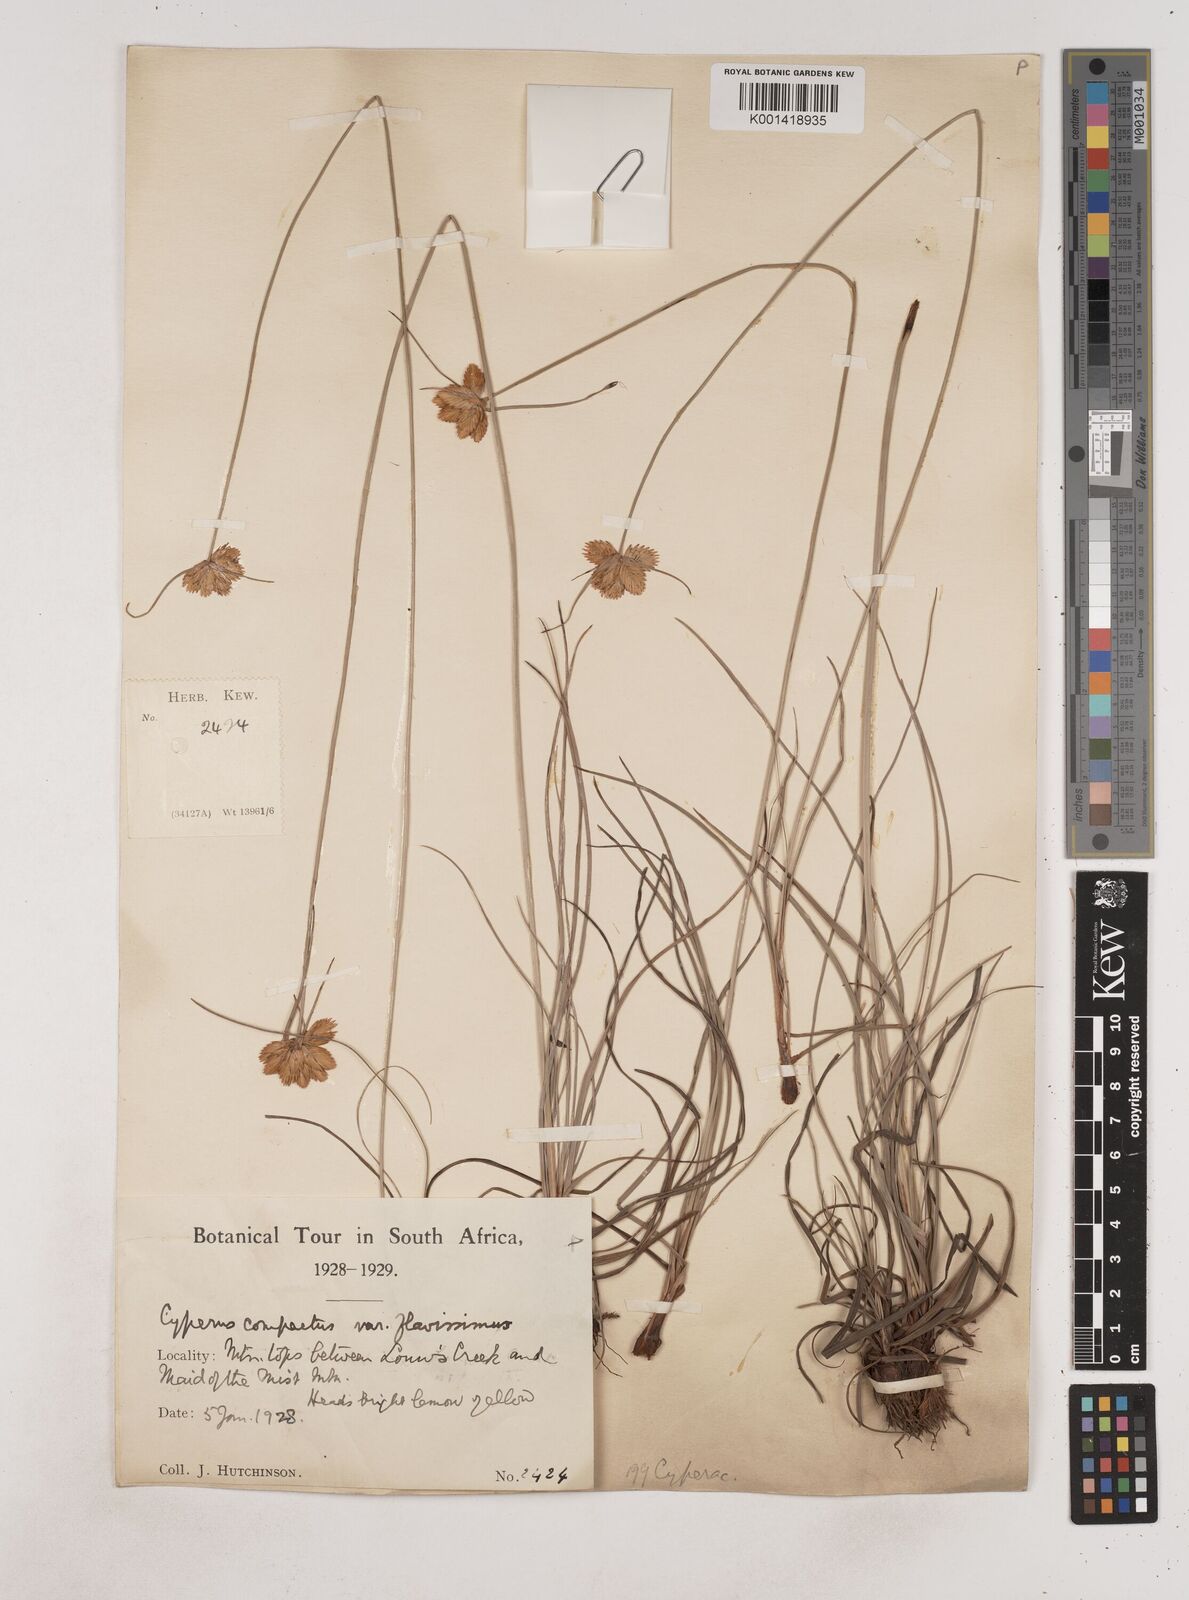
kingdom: Plantae
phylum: Tracheophyta
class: Liliopsida
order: Poales
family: Cyperaceae
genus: Cyperus
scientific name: Cyperus sphaerocephalus
